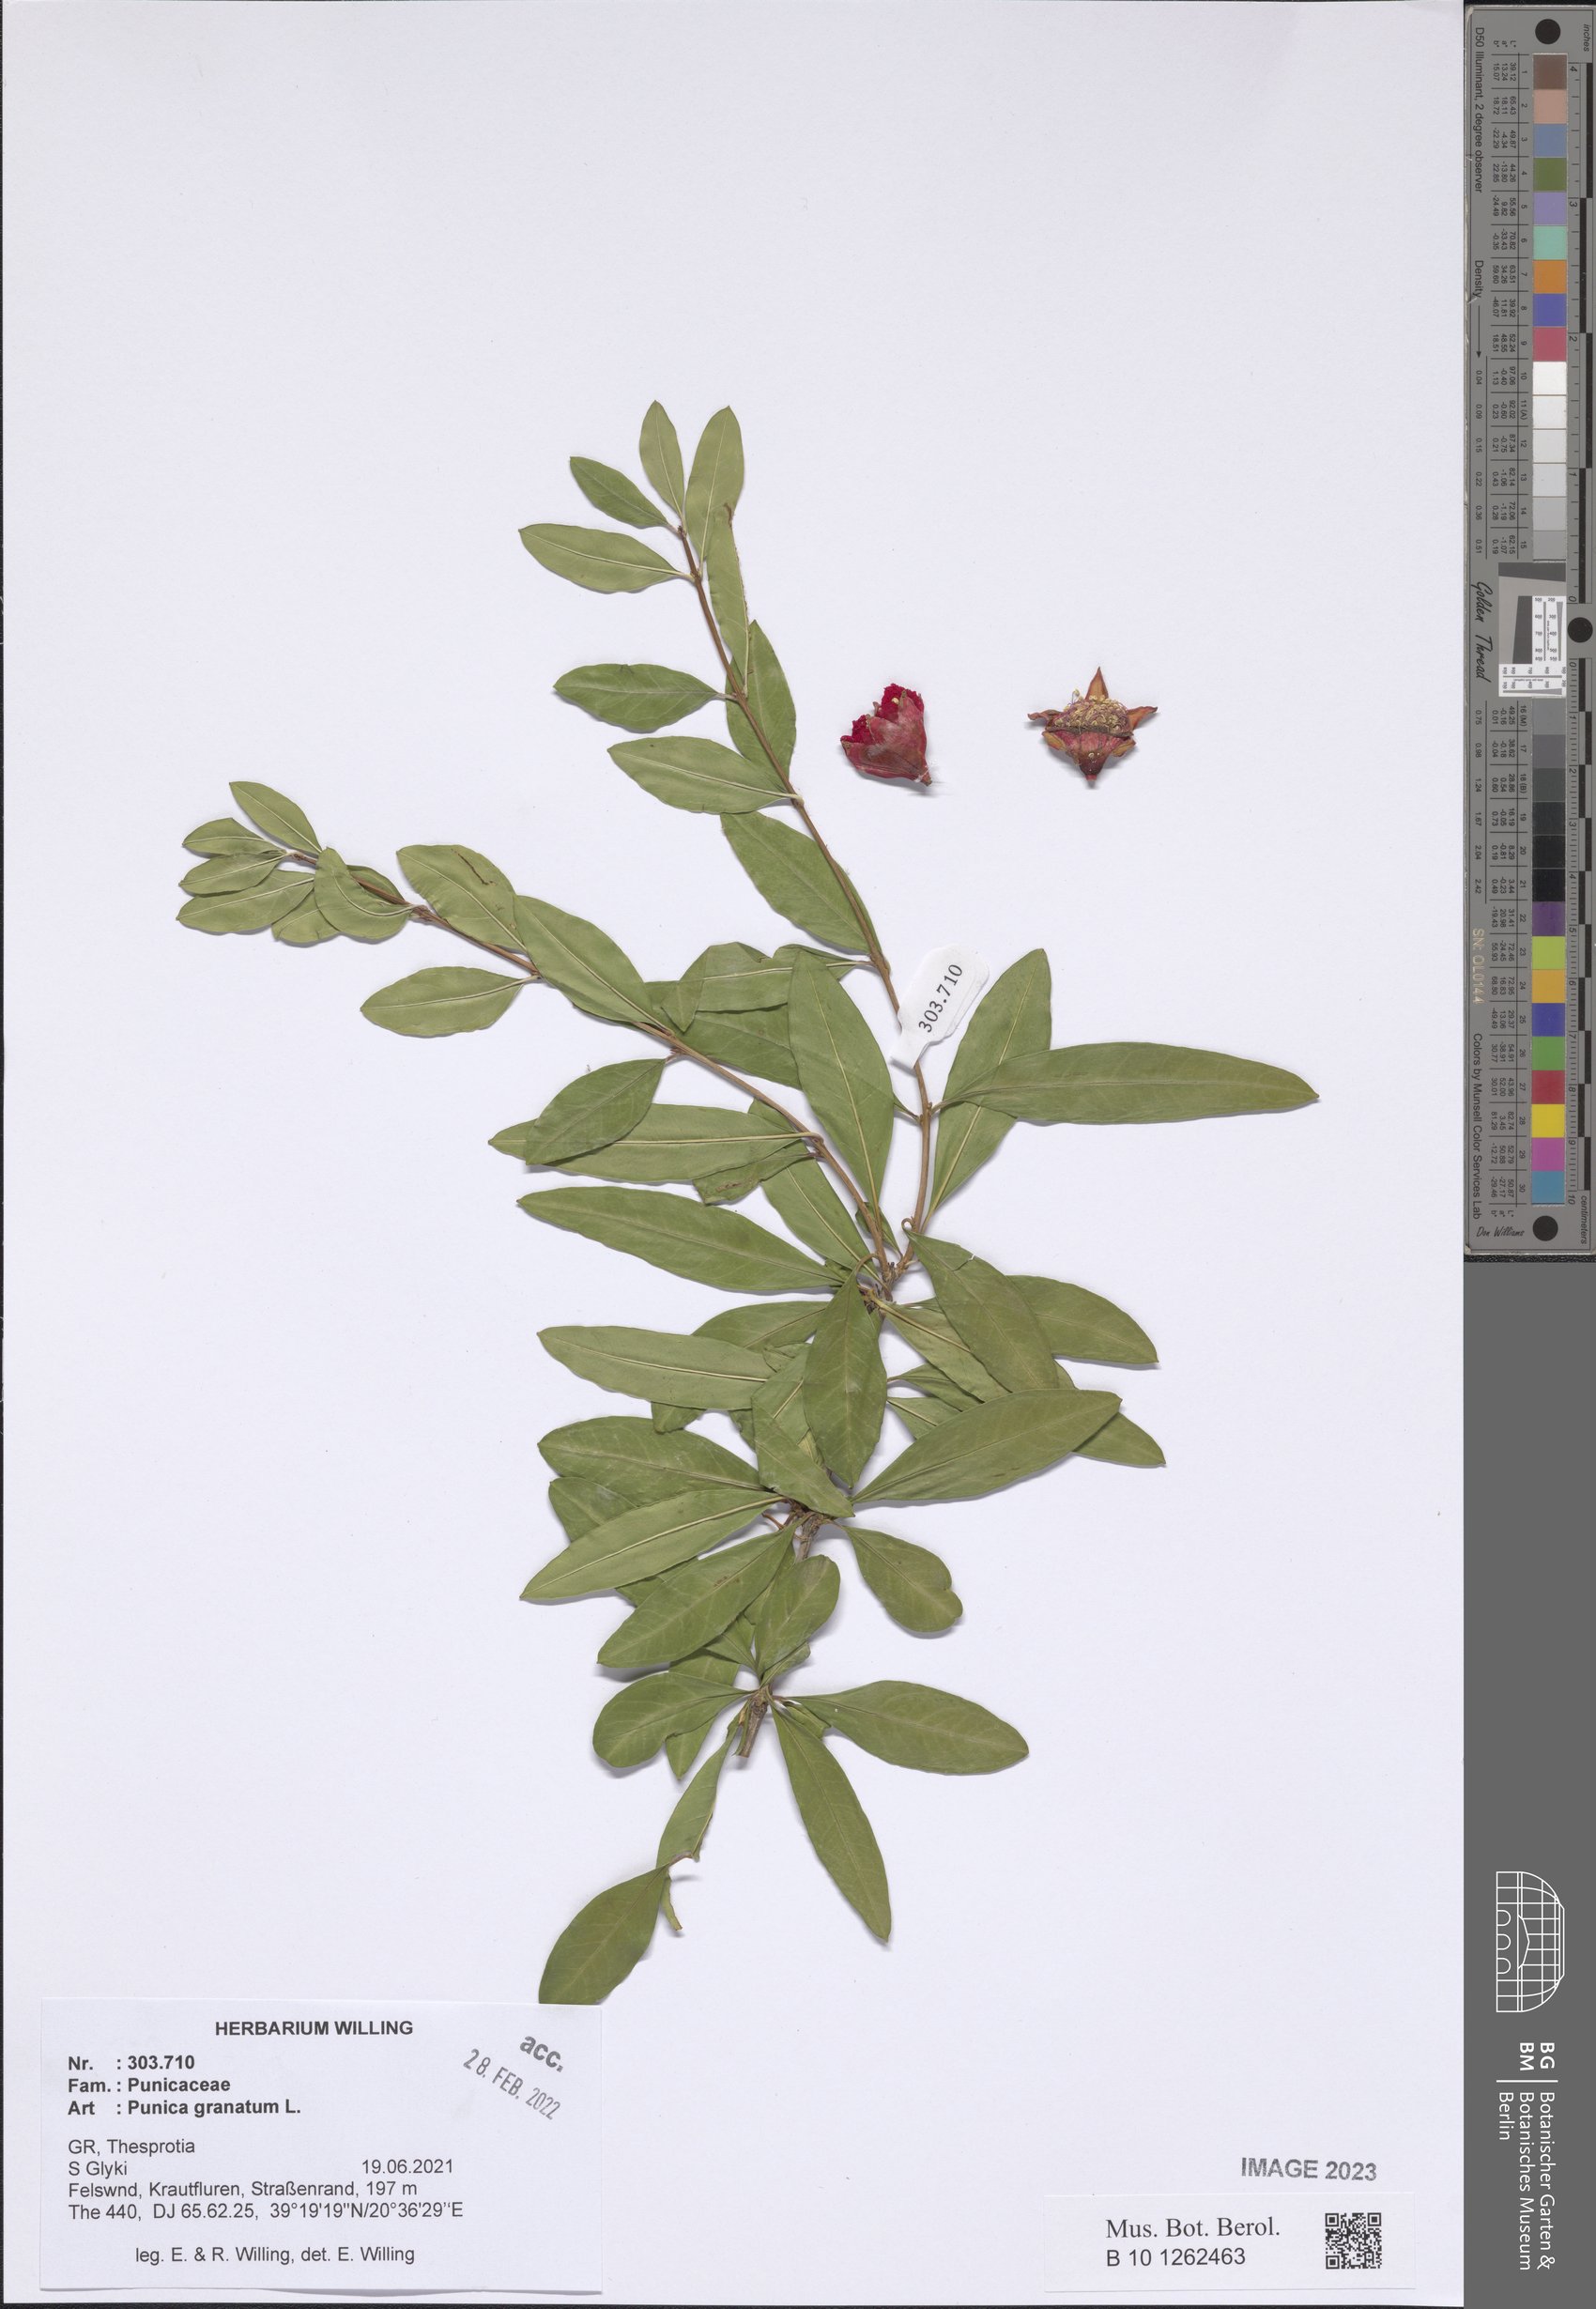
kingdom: Plantae
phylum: Tracheophyta
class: Magnoliopsida
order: Myrtales
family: Lythraceae
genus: Punica
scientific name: Punica granatum
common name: Pomegranate
